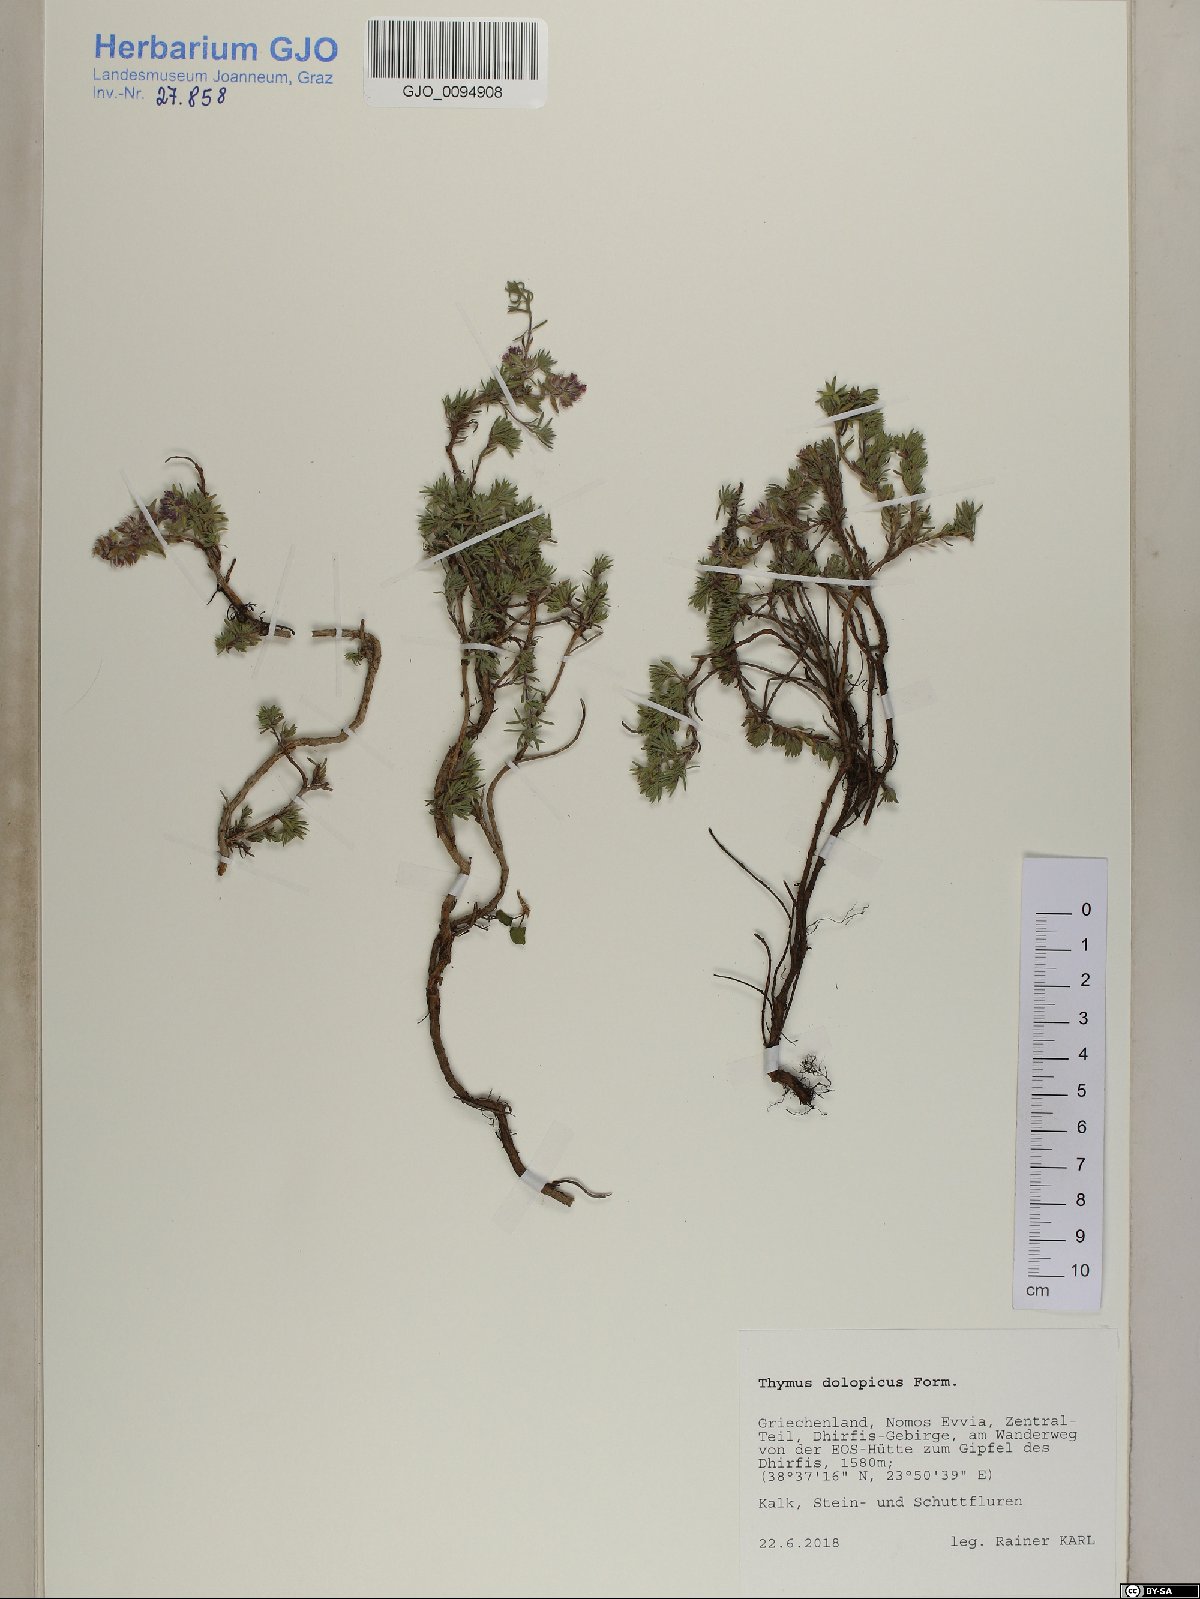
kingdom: Plantae
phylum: Tracheophyta
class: Magnoliopsida
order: Lamiales
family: Lamiaceae
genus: Thymus
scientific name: Thymus dolopicus
